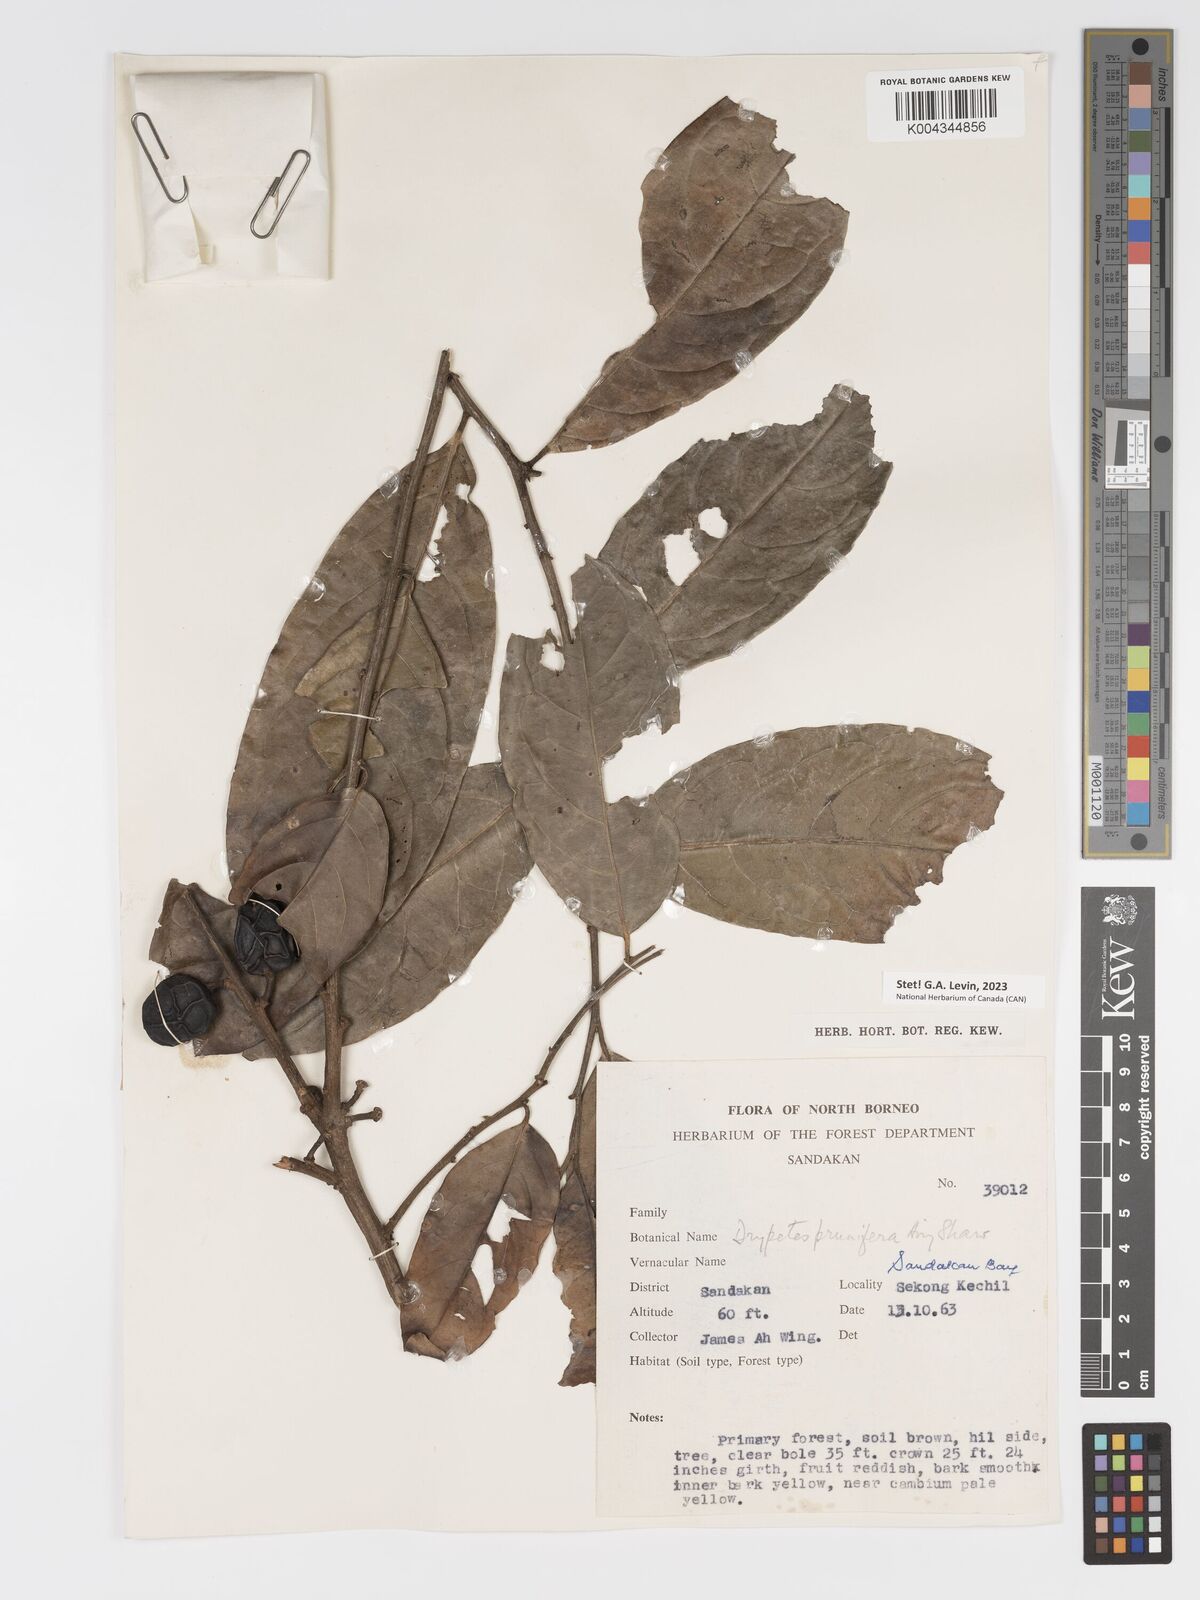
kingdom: Plantae
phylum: Tracheophyta
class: Magnoliopsida
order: Malpighiales
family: Putranjivaceae
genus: Drypetes
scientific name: Drypetes prunifera
